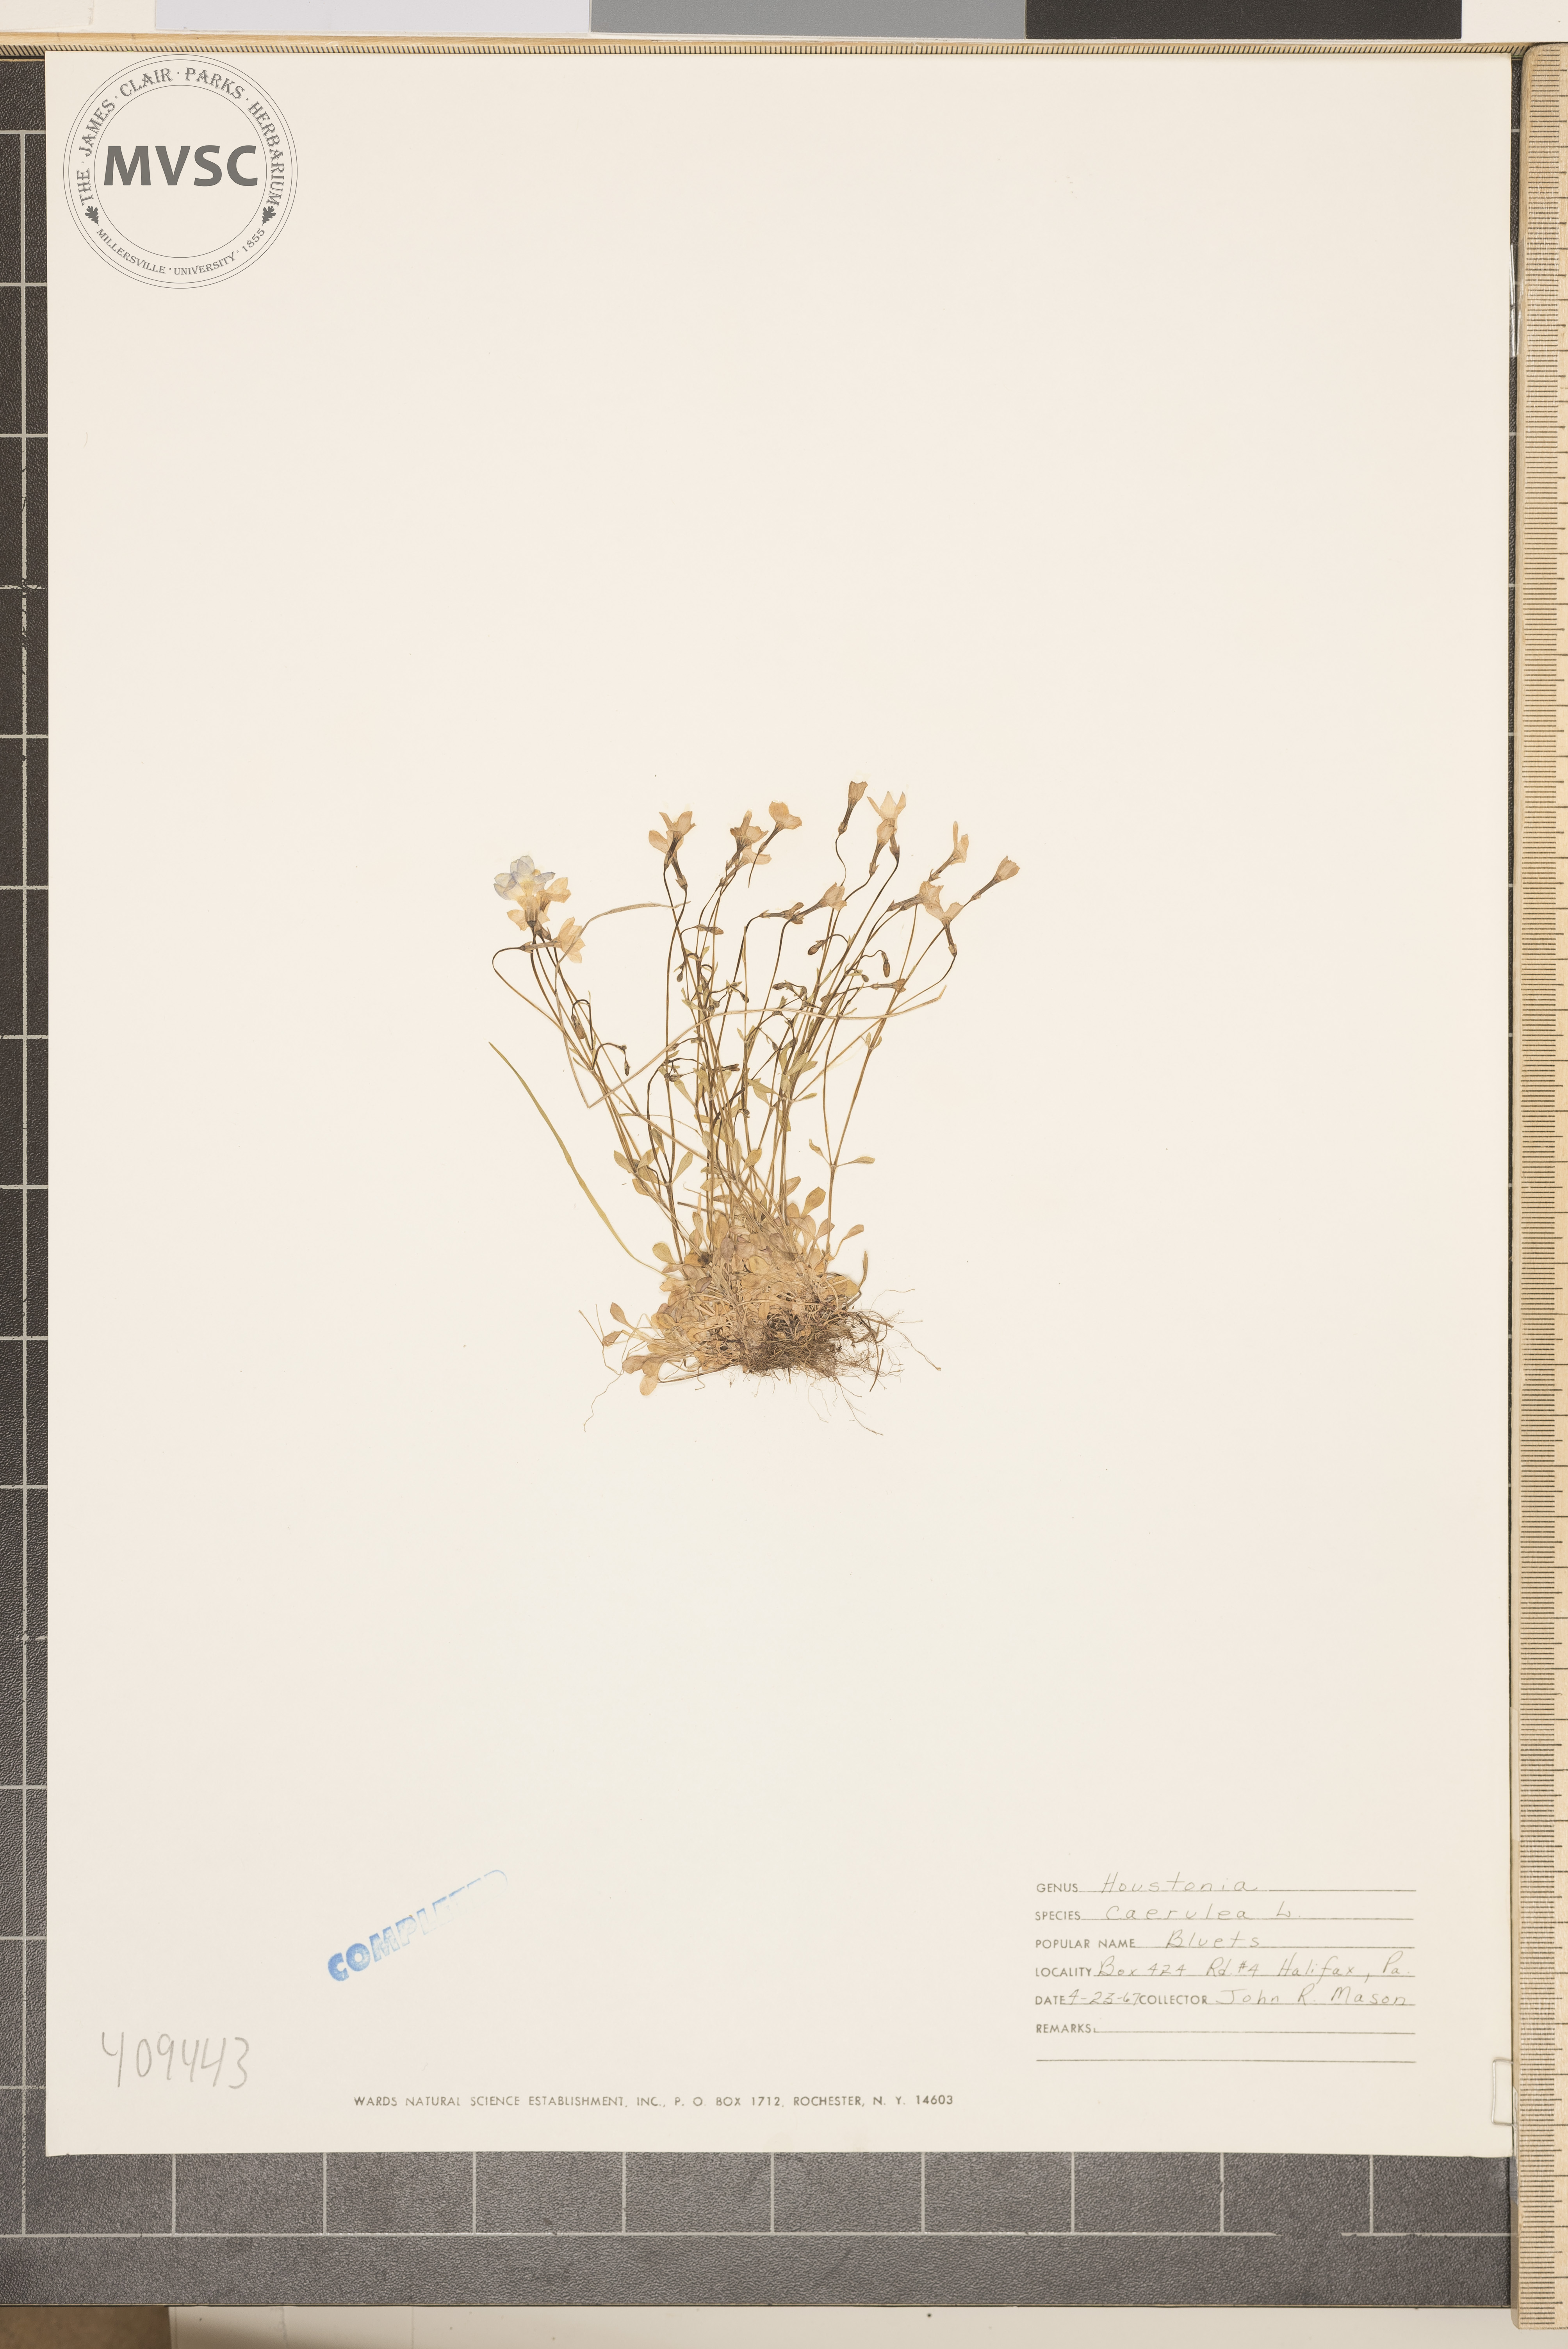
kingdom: Plantae
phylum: Tracheophyta
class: Magnoliopsida
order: Gentianales
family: Rubiaceae
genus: Houstonia
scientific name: Houstonia caerulea
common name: Bluets
